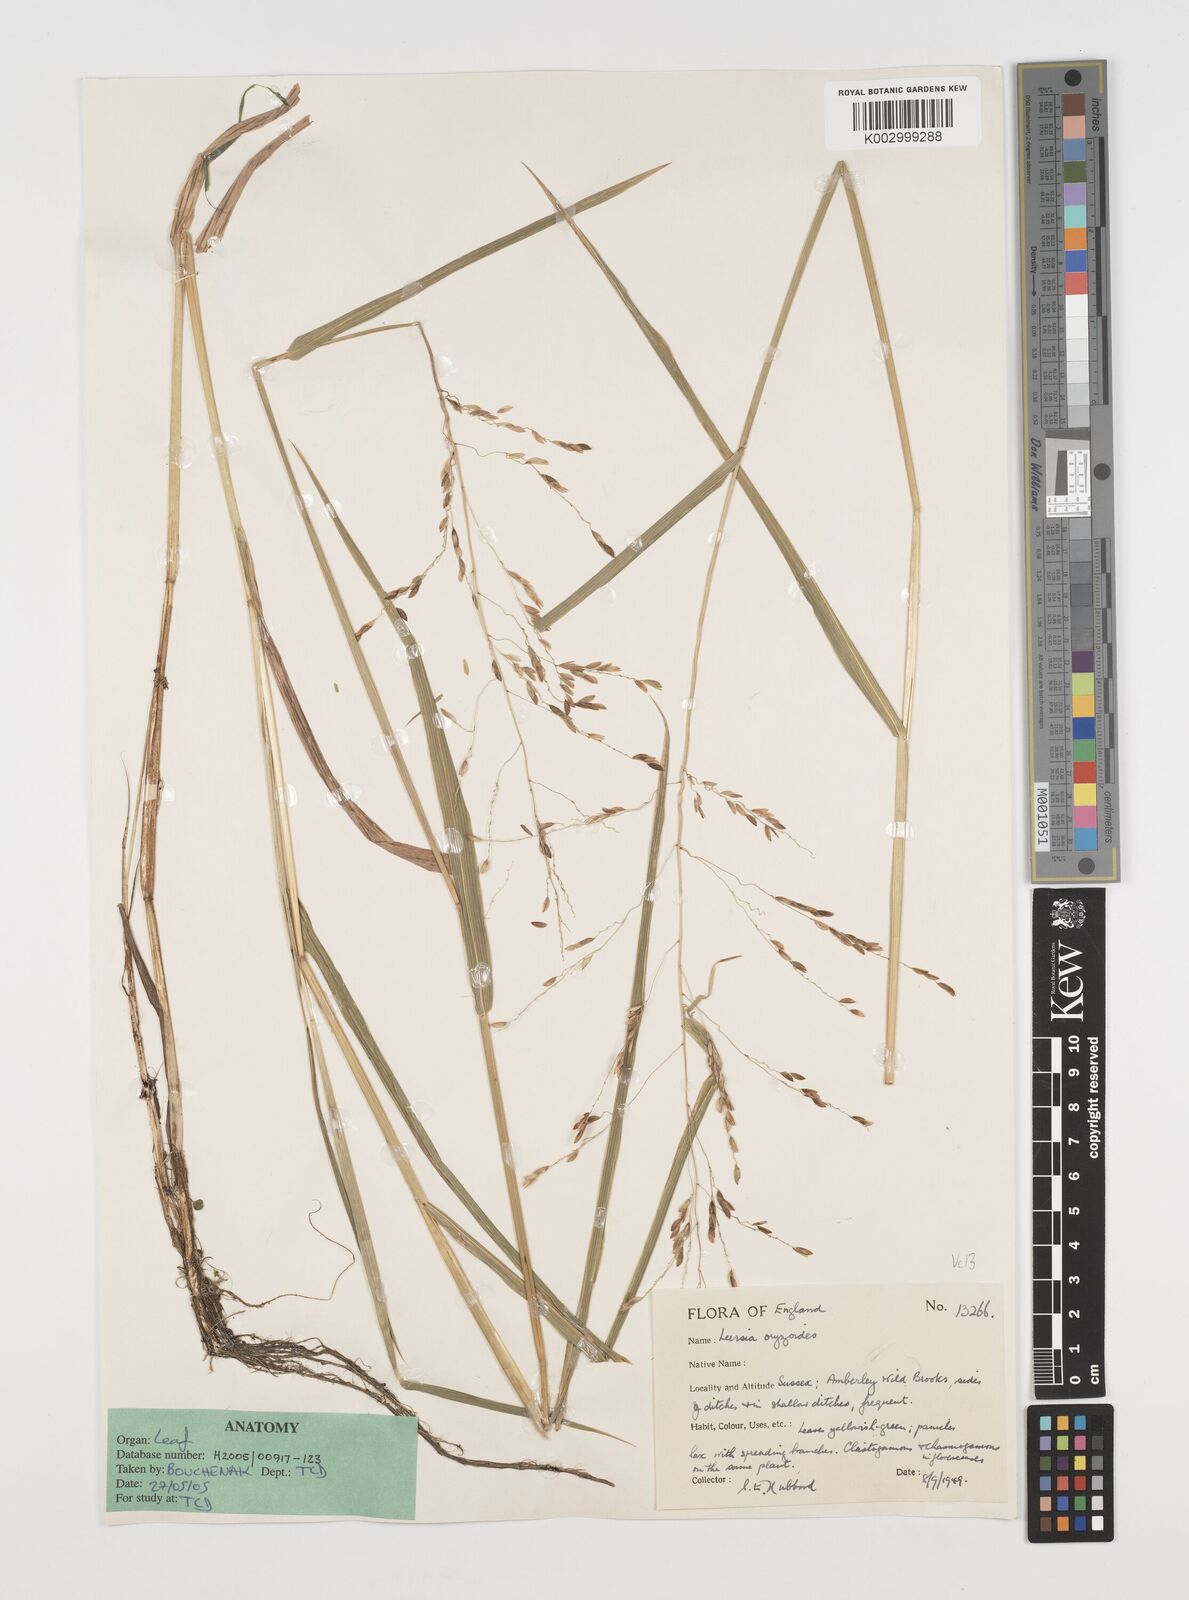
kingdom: Plantae
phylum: Tracheophyta
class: Liliopsida
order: Poales
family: Poaceae
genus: Leersia
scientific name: Leersia oryzoides
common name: Cut-grass
